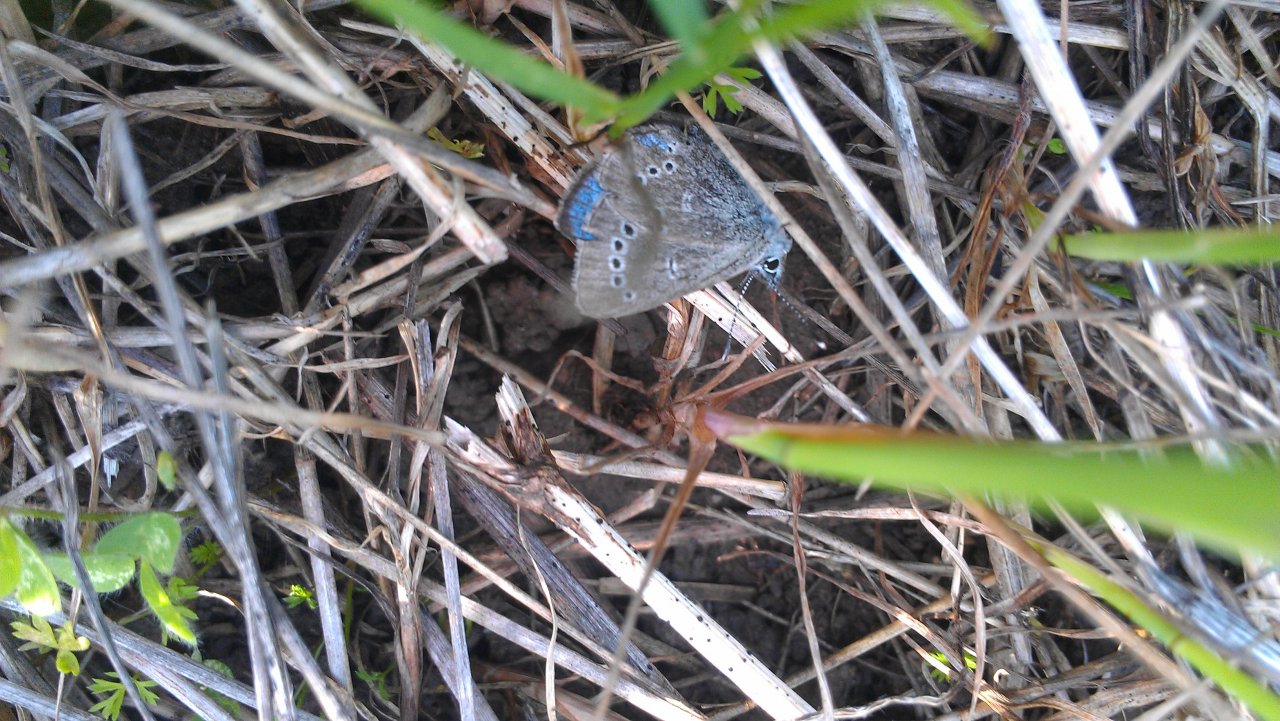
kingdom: Animalia
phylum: Arthropoda
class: Insecta
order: Lepidoptera
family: Lycaenidae
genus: Glaucopsyche
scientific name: Glaucopsyche lygdamus
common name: Silvery Blue
